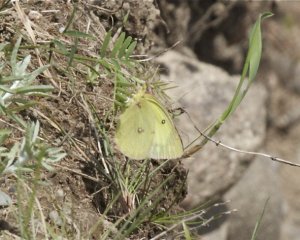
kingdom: Animalia
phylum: Arthropoda
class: Insecta
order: Lepidoptera
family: Pieridae
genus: Colias
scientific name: Colias philodice
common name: Clouded Sulphur
